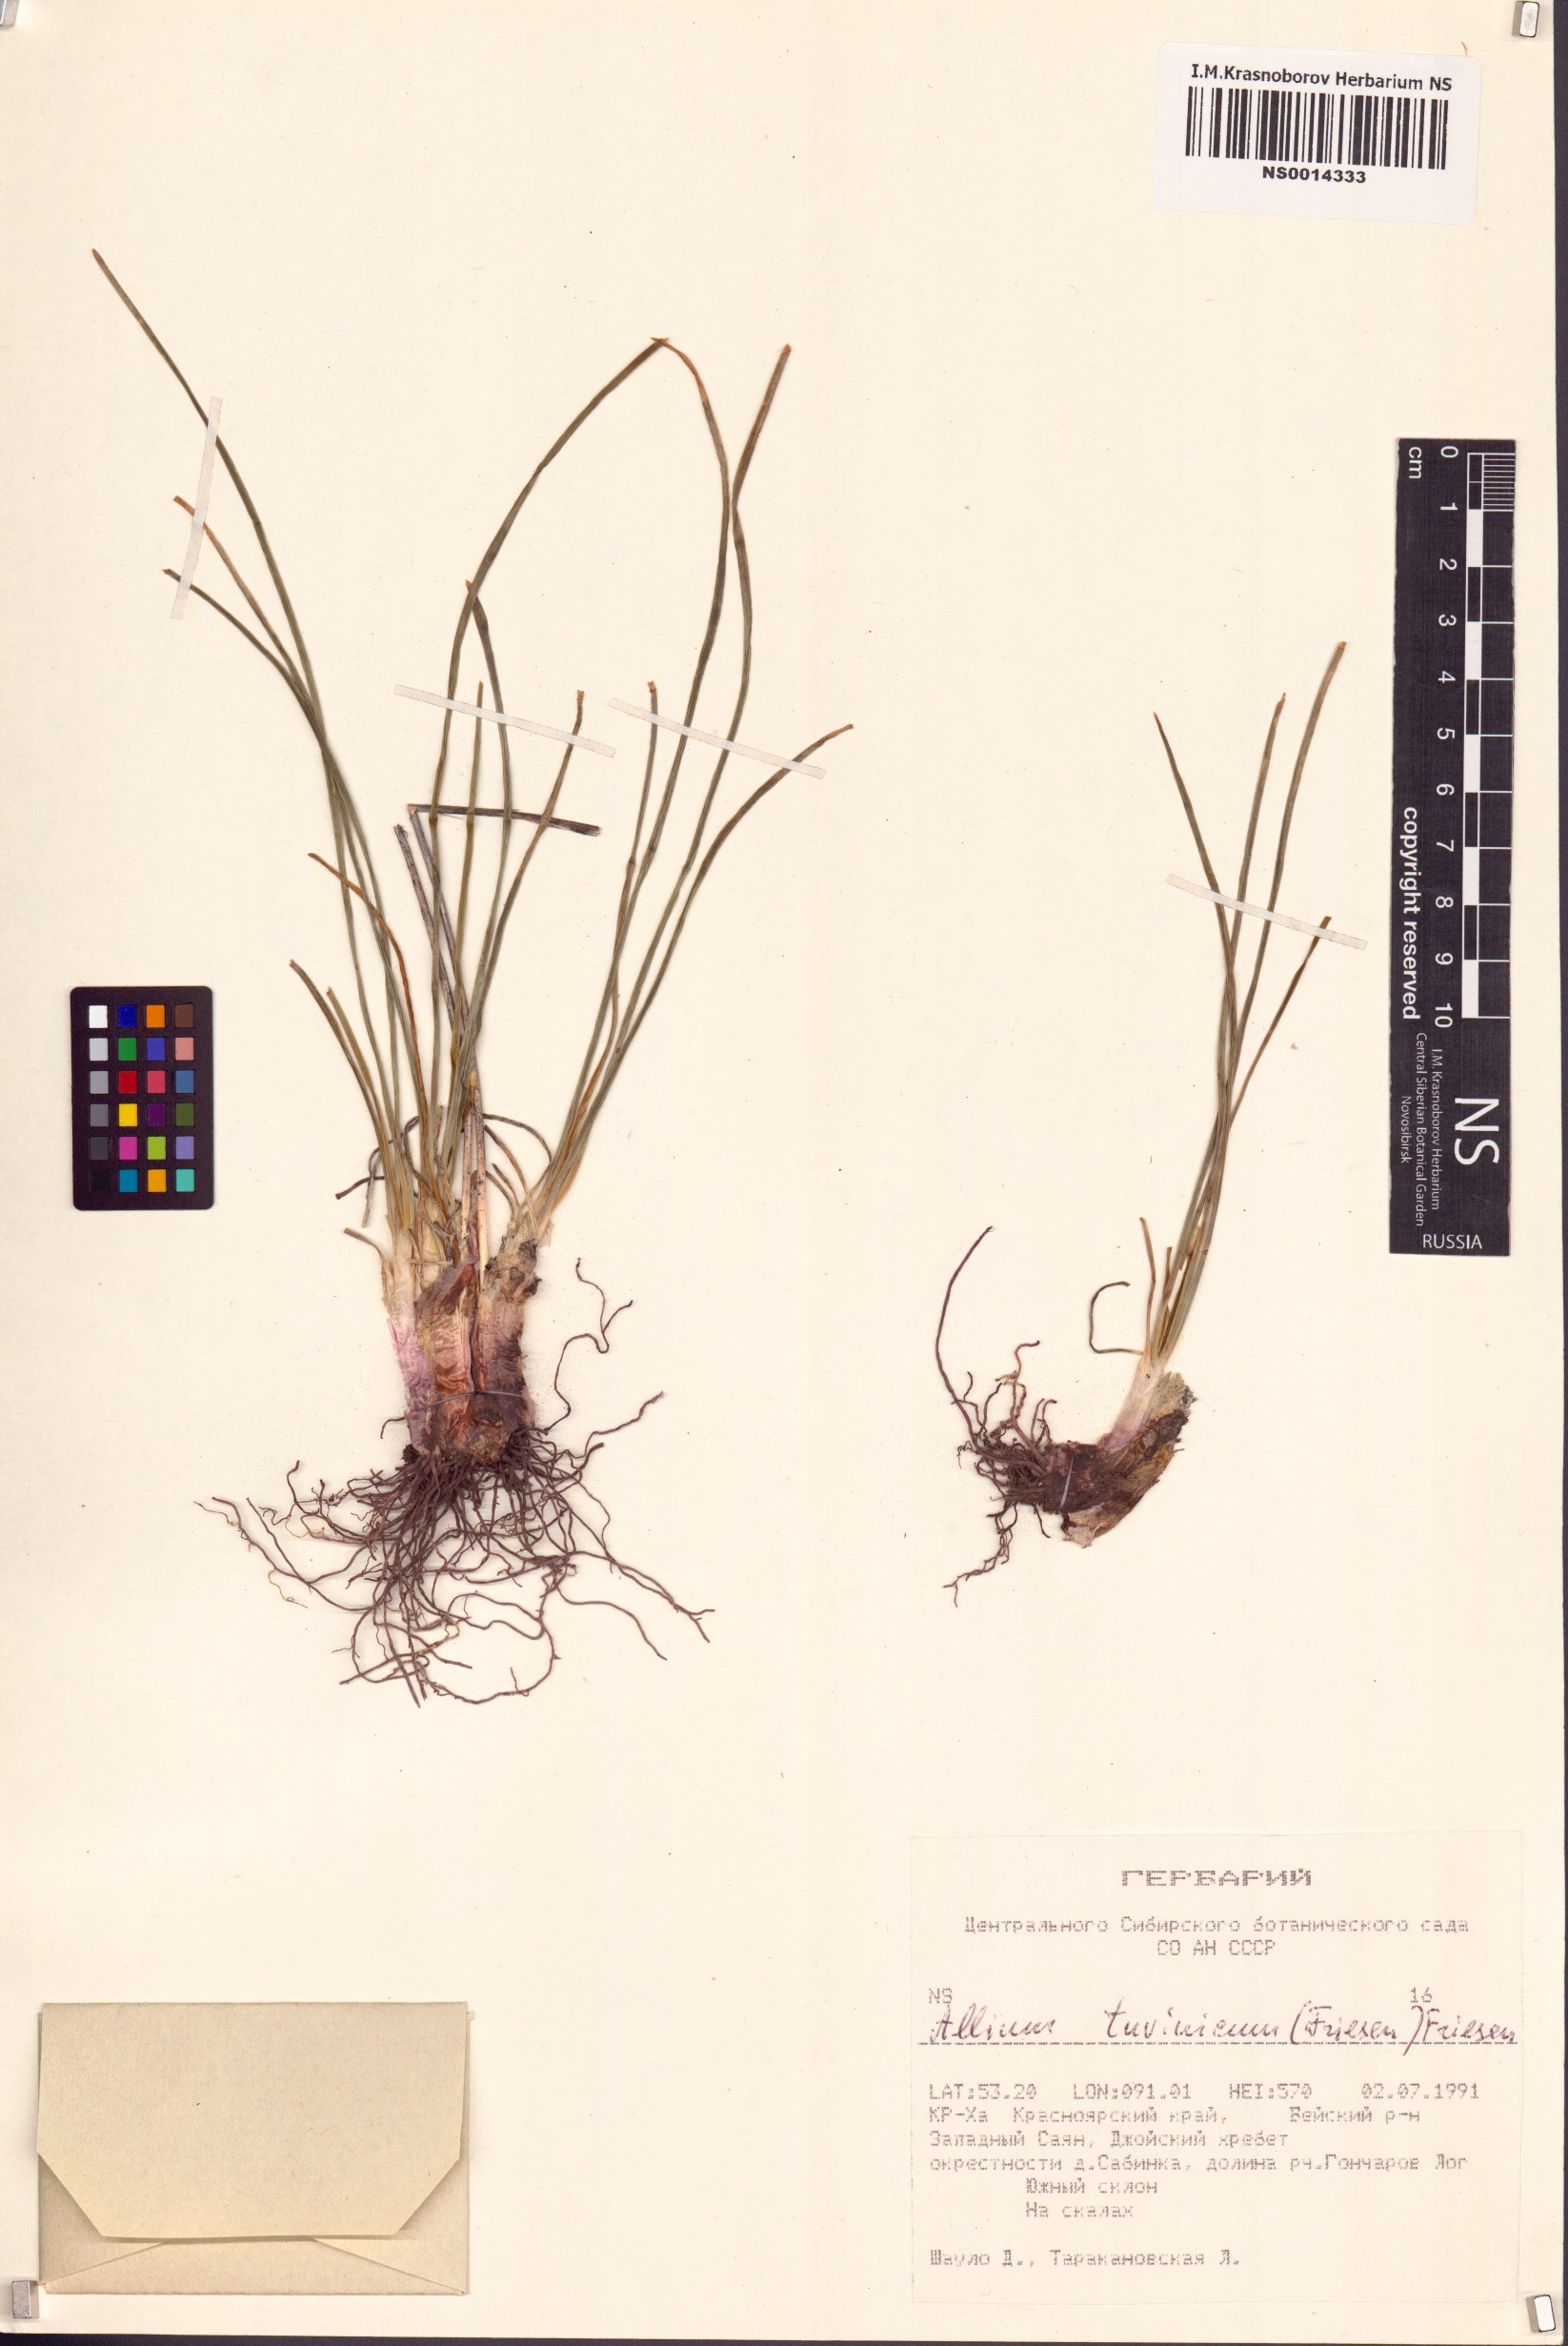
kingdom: Plantae
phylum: Tracheophyta
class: Liliopsida
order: Asparagales
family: Amaryllidaceae
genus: Allium
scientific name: Allium tuvinicum
